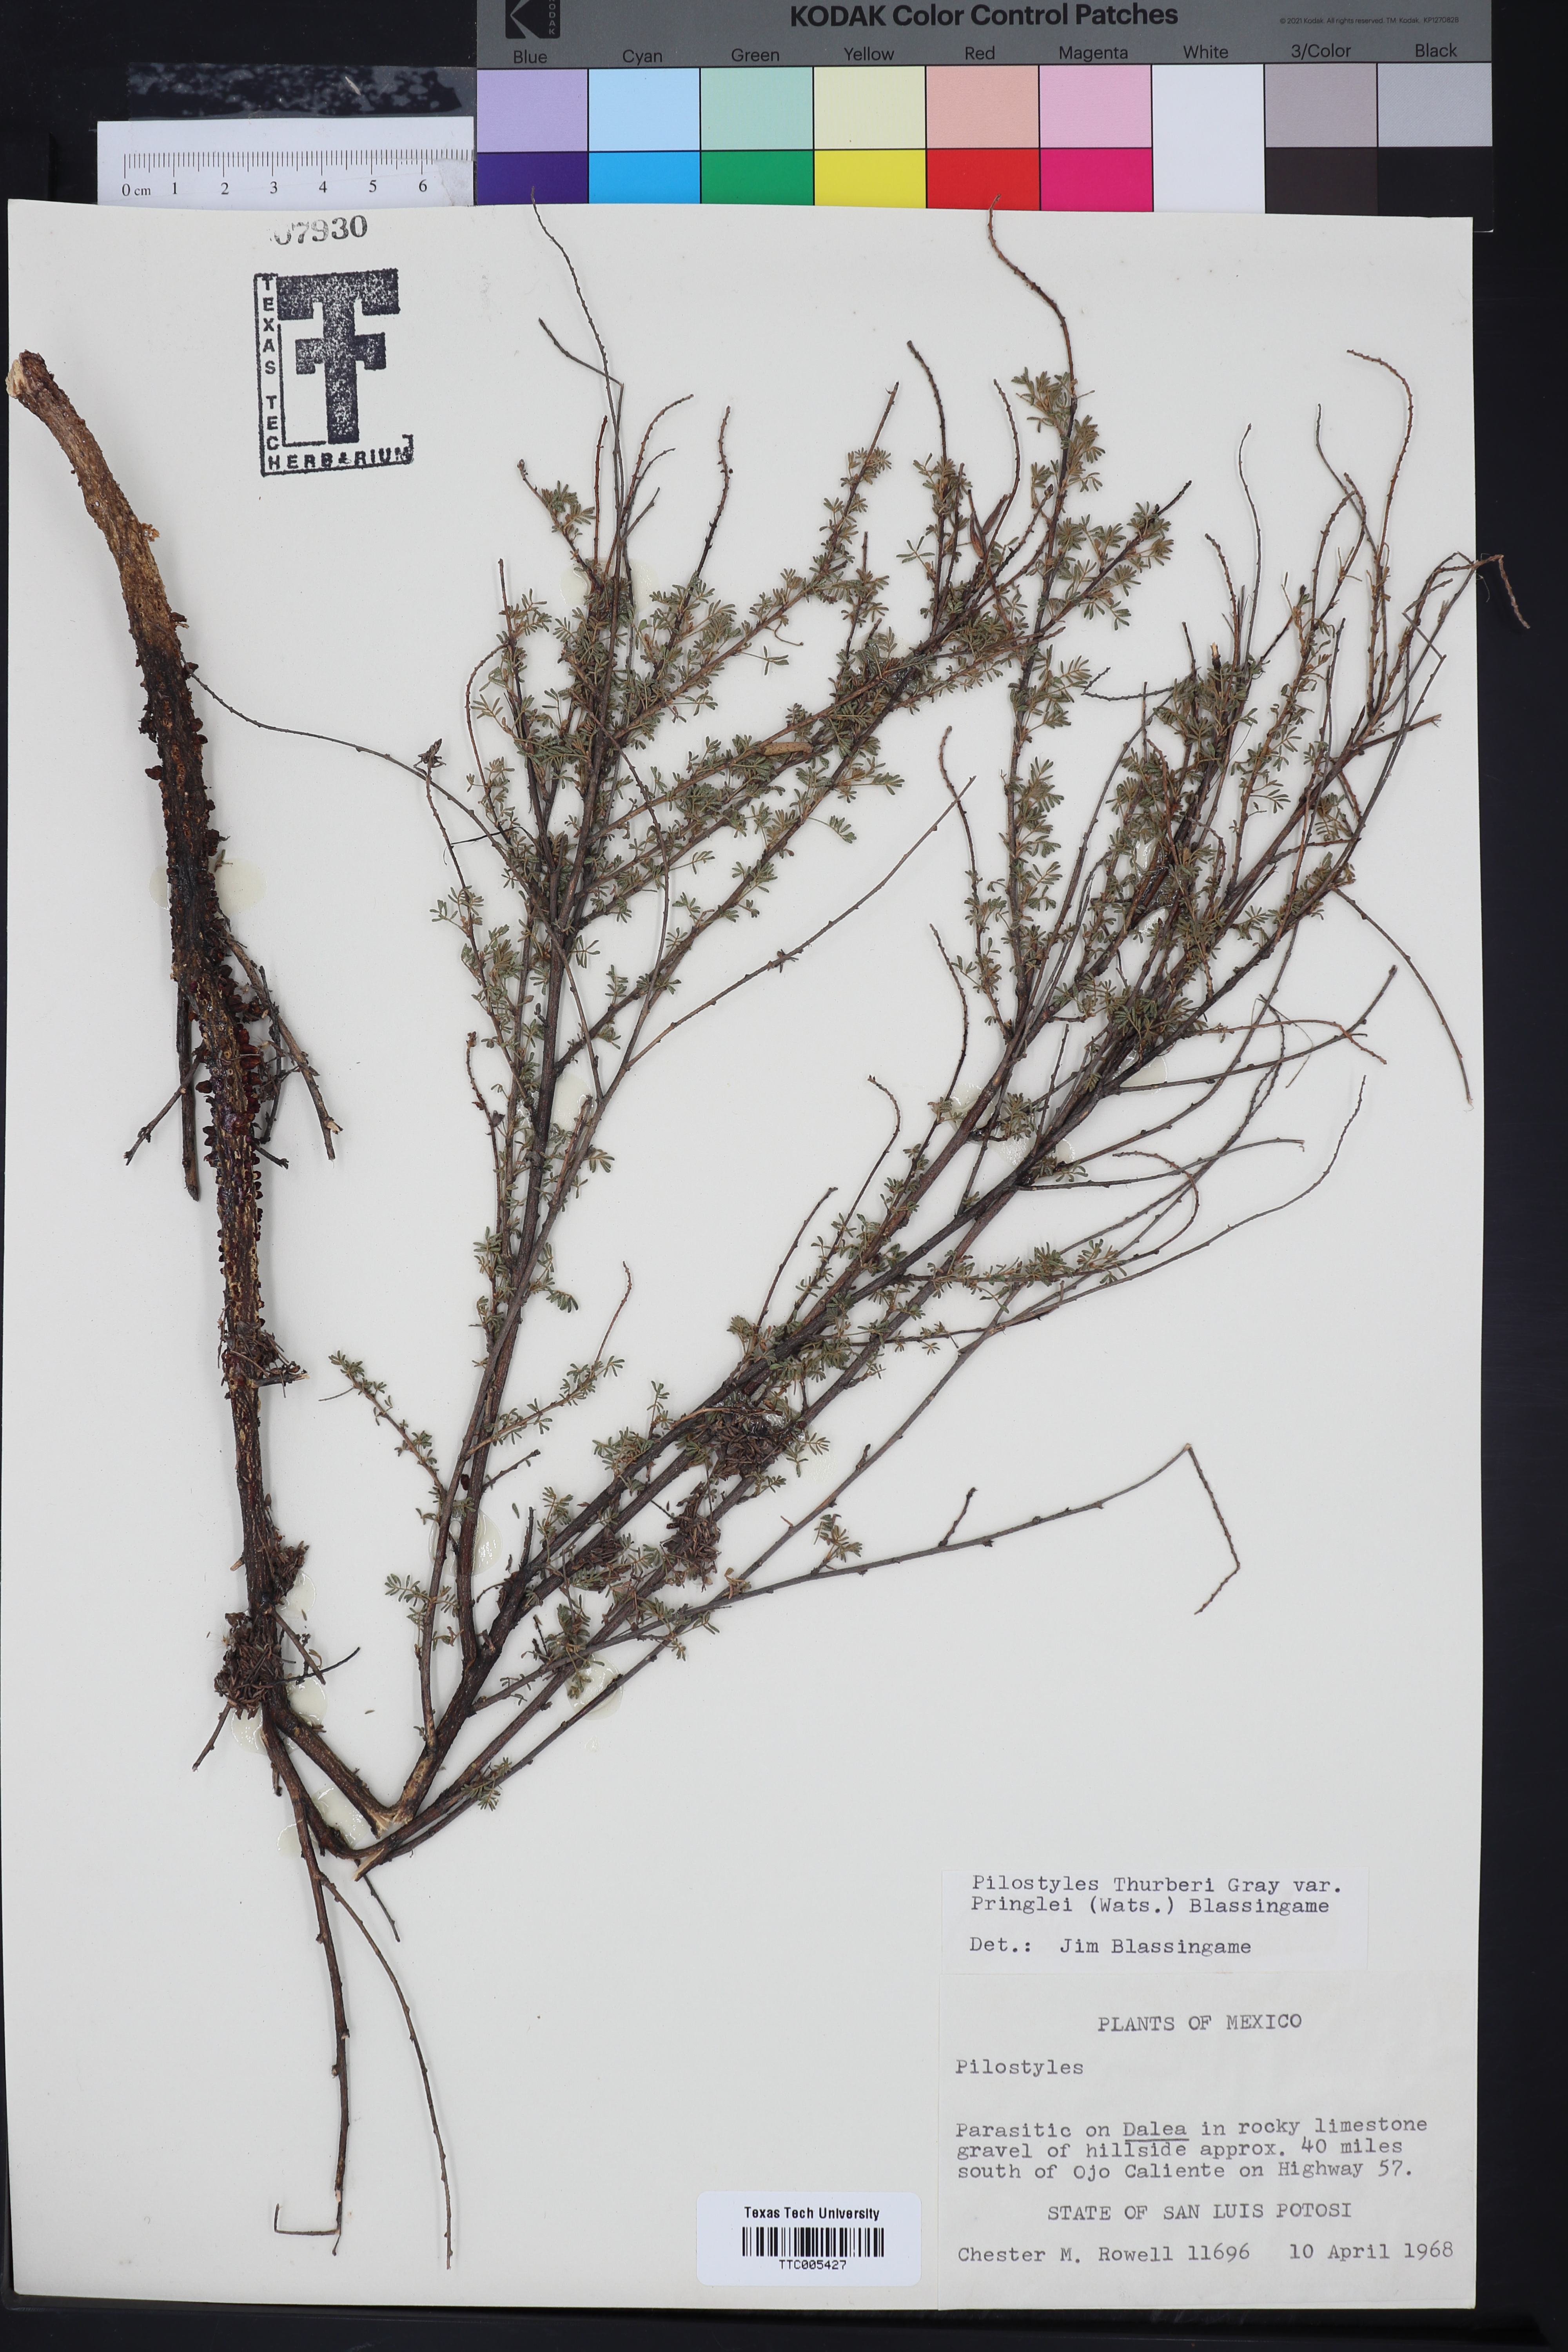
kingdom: Plantae
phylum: Tracheophyta
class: Magnoliopsida
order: Cucurbitales
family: Apodanthaceae
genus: Pilostyles
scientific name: Pilostyles thurberi
